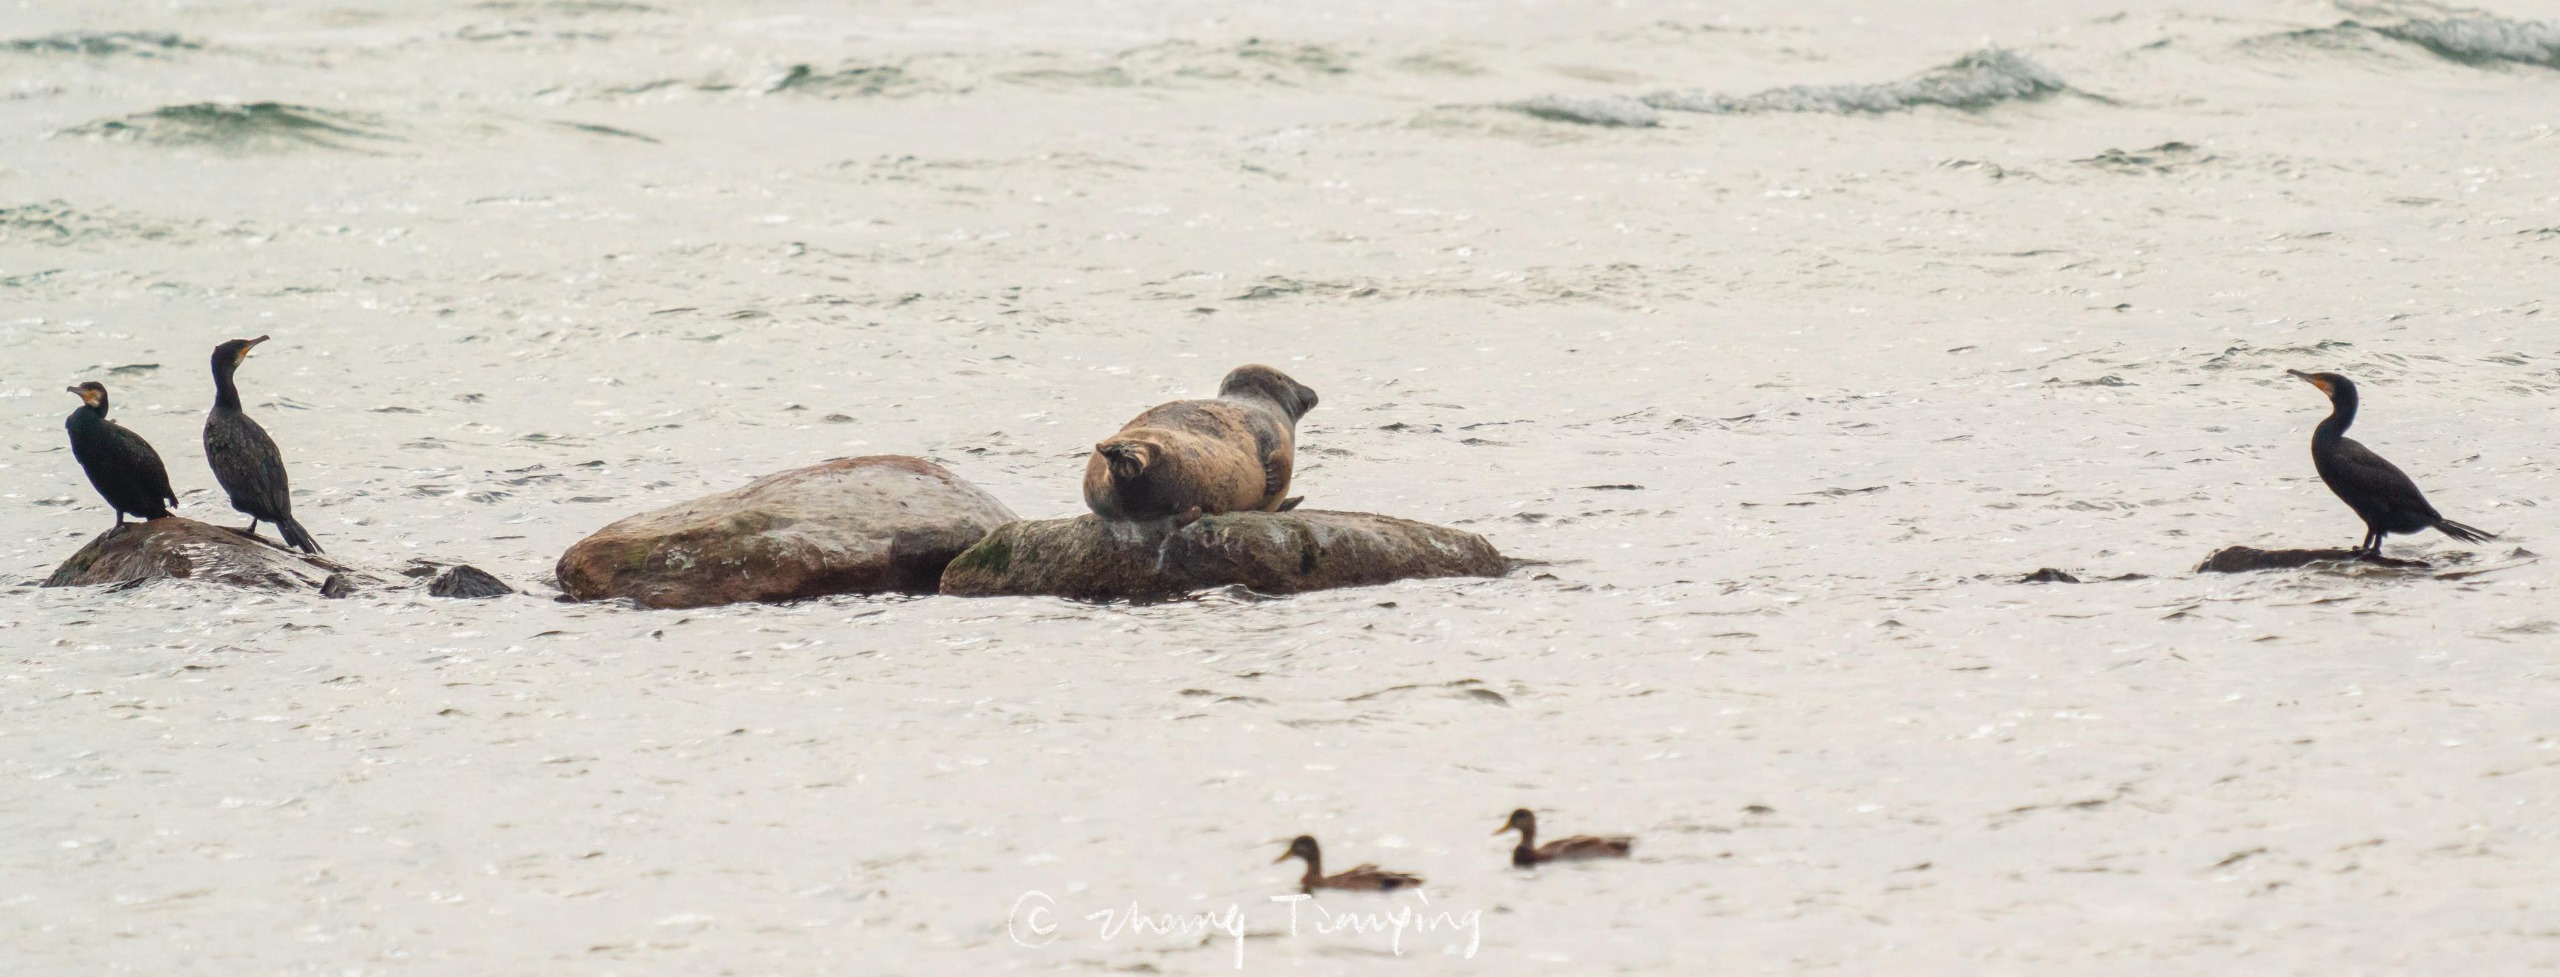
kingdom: Animalia
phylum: Chordata
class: Mammalia
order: Carnivora
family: Phocidae
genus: Phoca
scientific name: Phoca vitulina
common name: Spættet sæl
